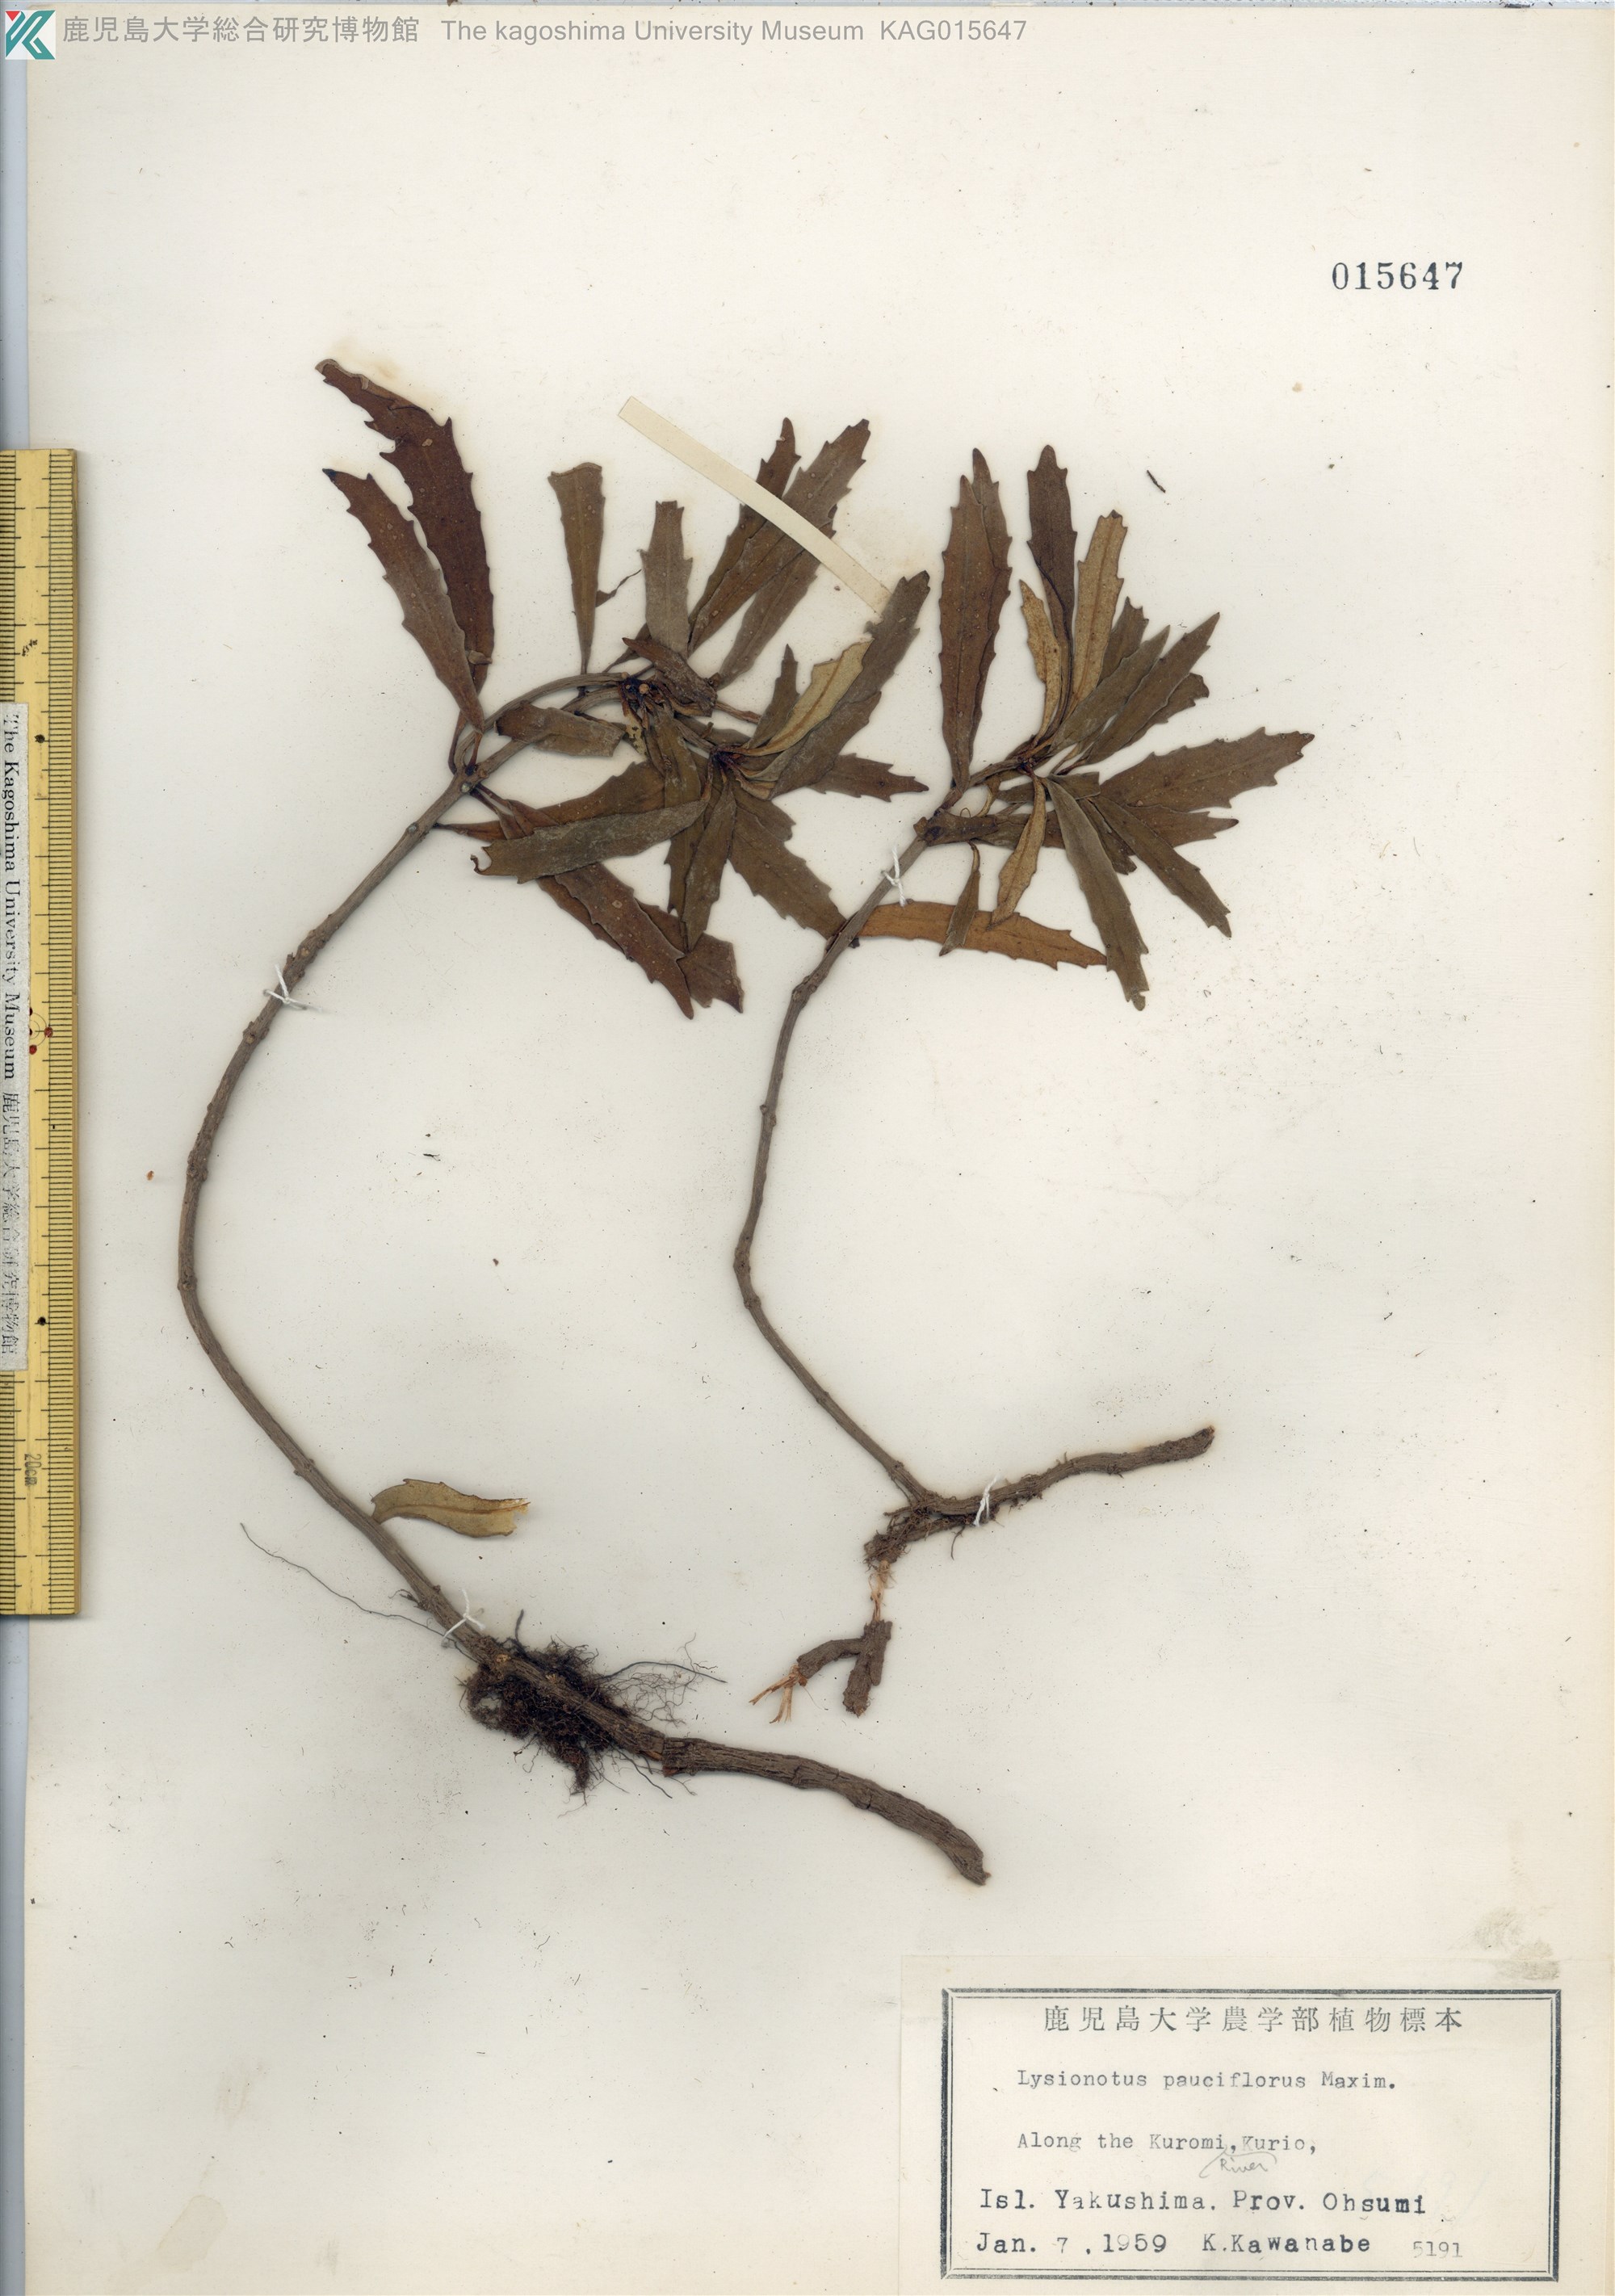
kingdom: Plantae
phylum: Tracheophyta
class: Magnoliopsida
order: Lamiales
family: Gesneriaceae
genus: Lysionotus
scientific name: Lysionotus pauciflorus
